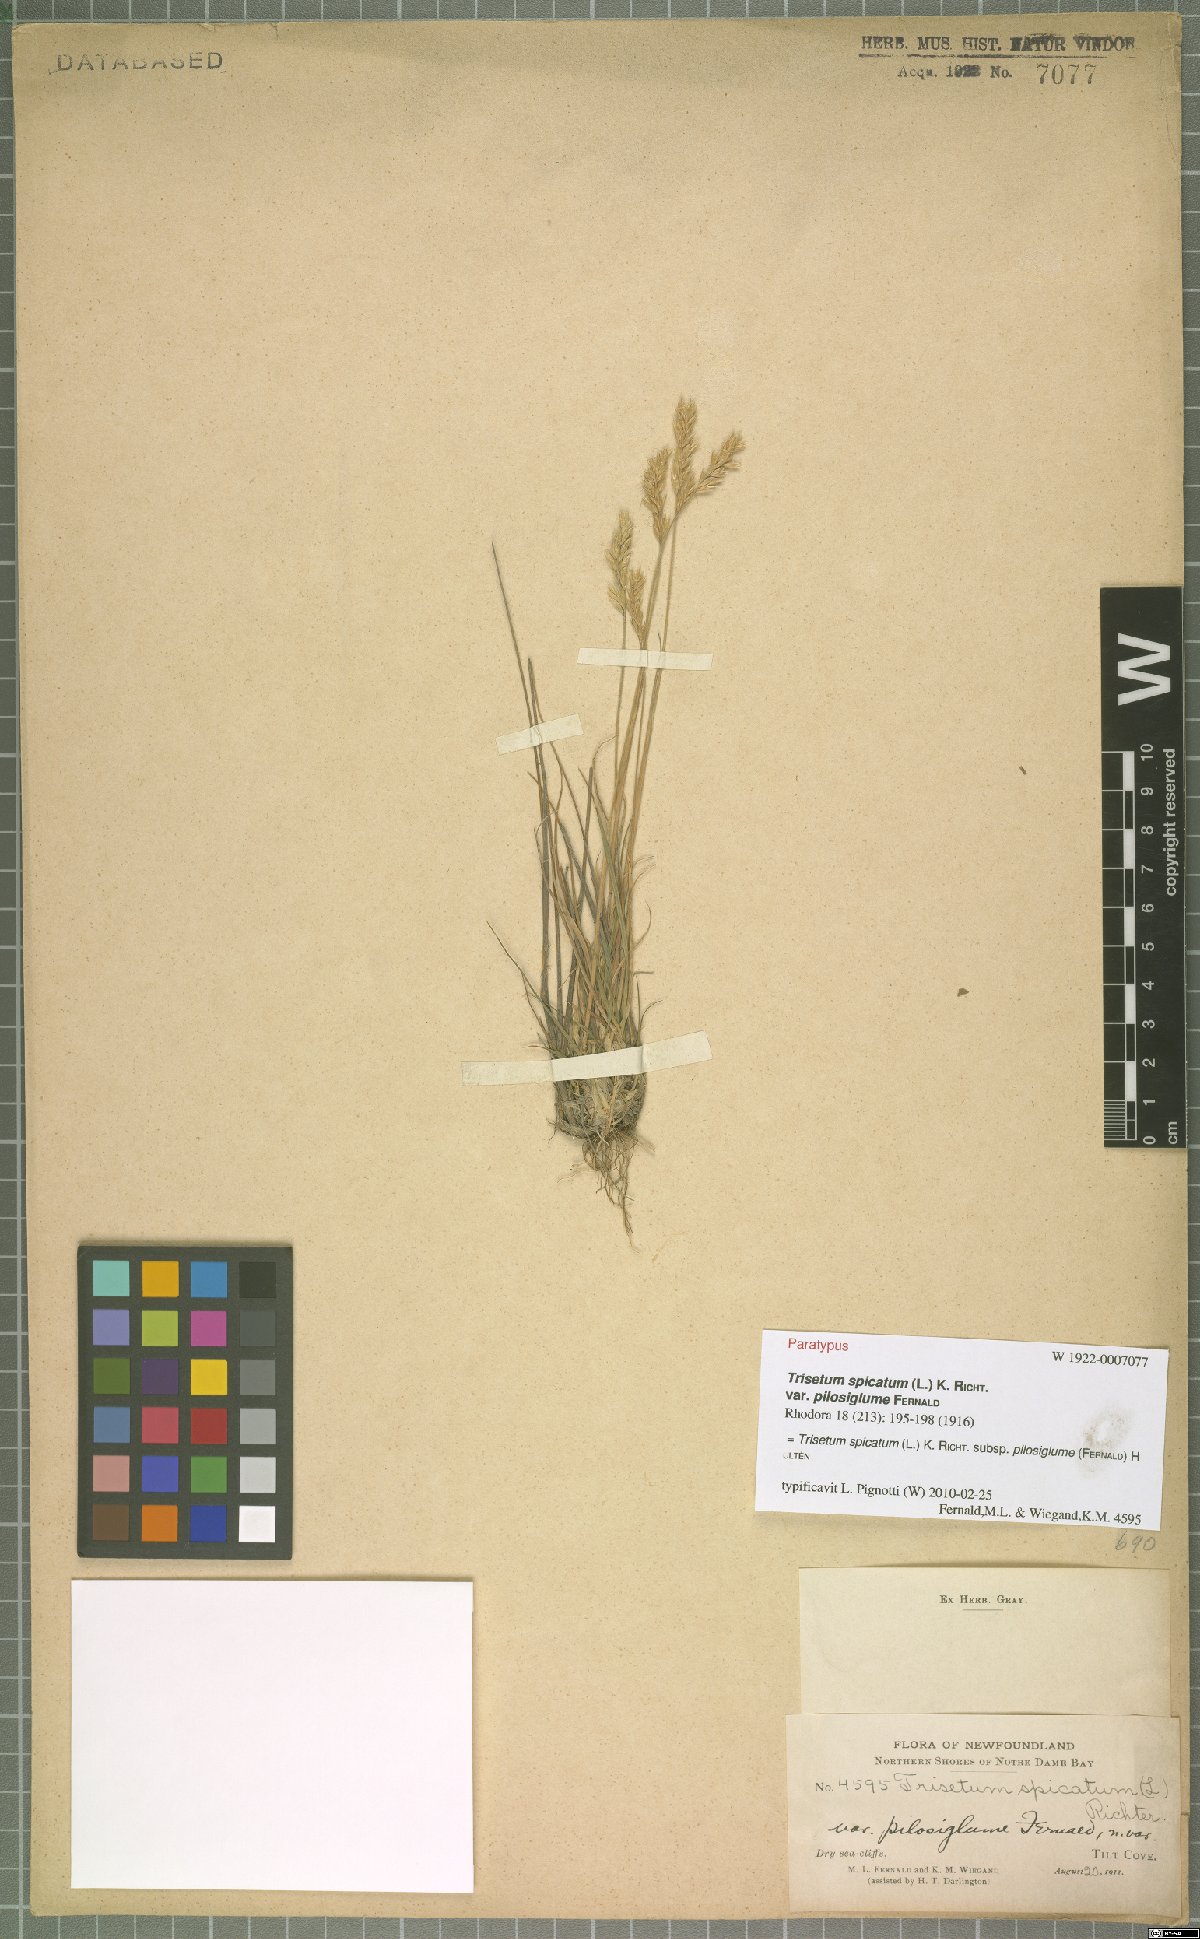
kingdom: Plantae
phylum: Tracheophyta
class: Liliopsida
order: Poales
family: Poaceae
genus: Koeleria
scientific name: Koeleria spicata
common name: Mountain trisetum
